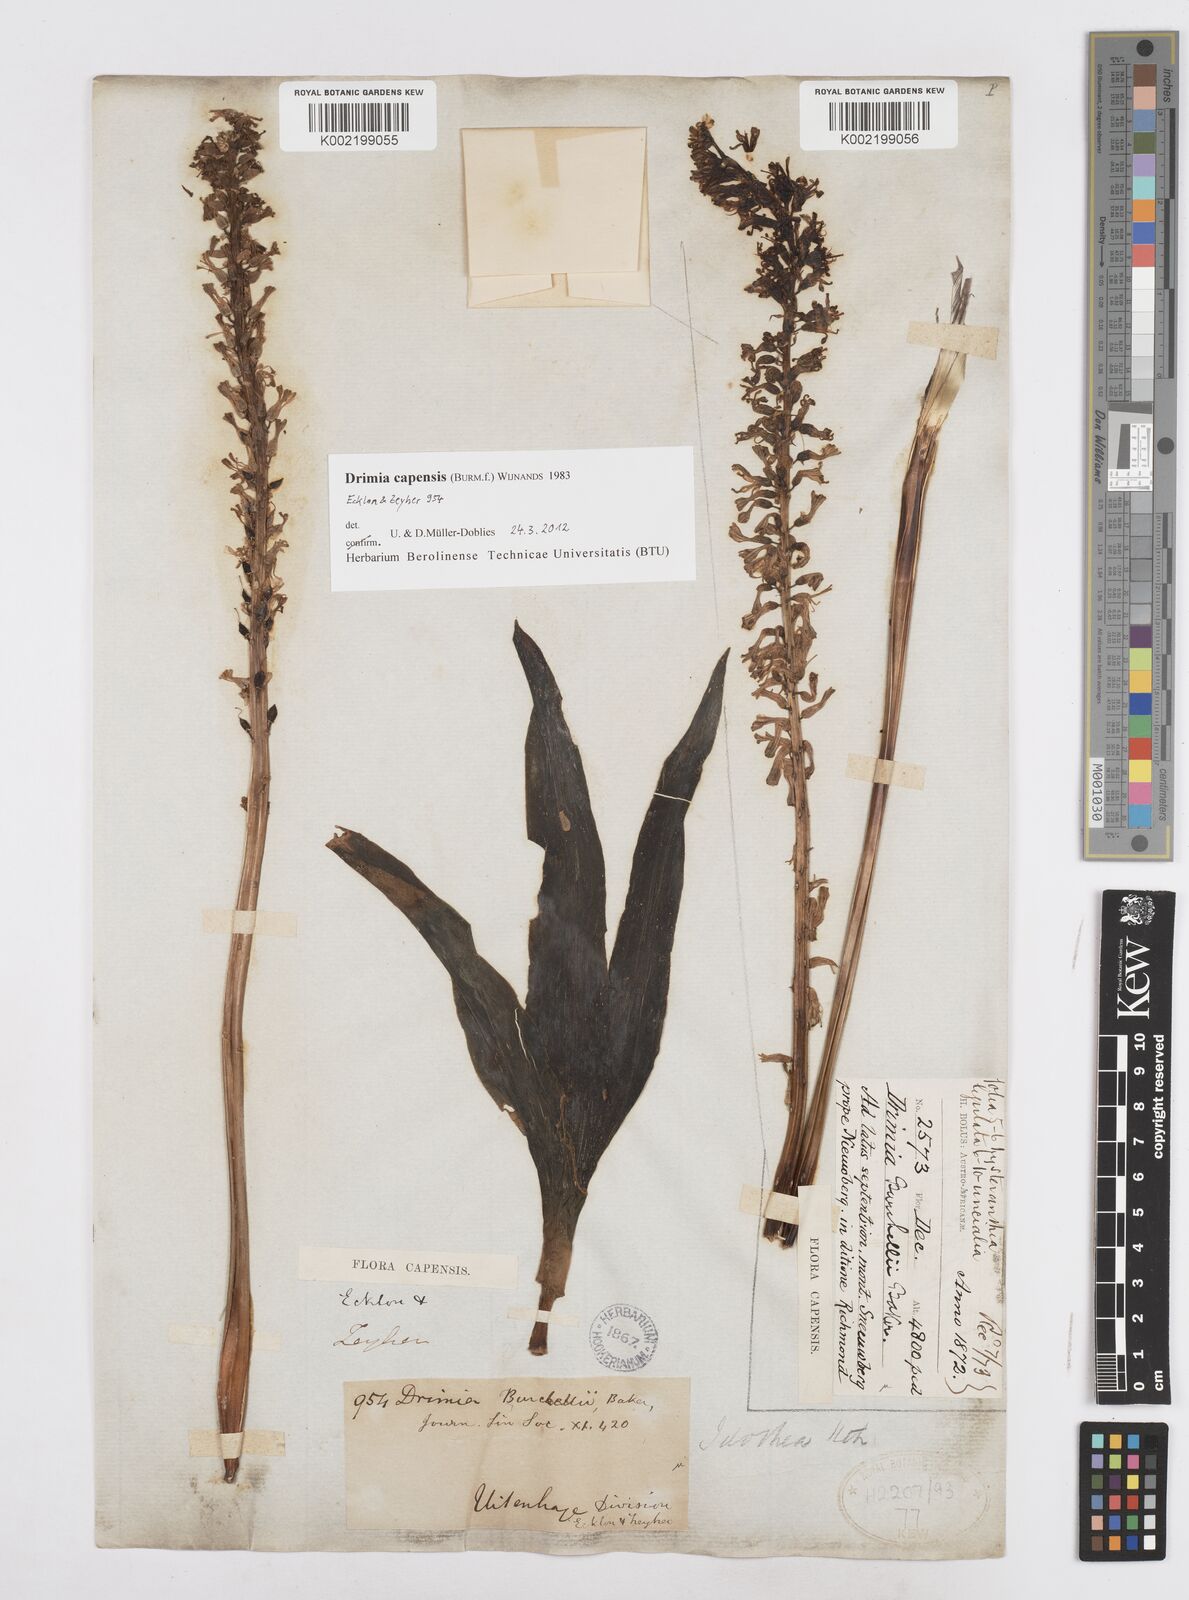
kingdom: Plantae
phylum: Tracheophyta
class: Liliopsida
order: Asparagales
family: Asparagaceae
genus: Drimia
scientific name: Drimia capensis
